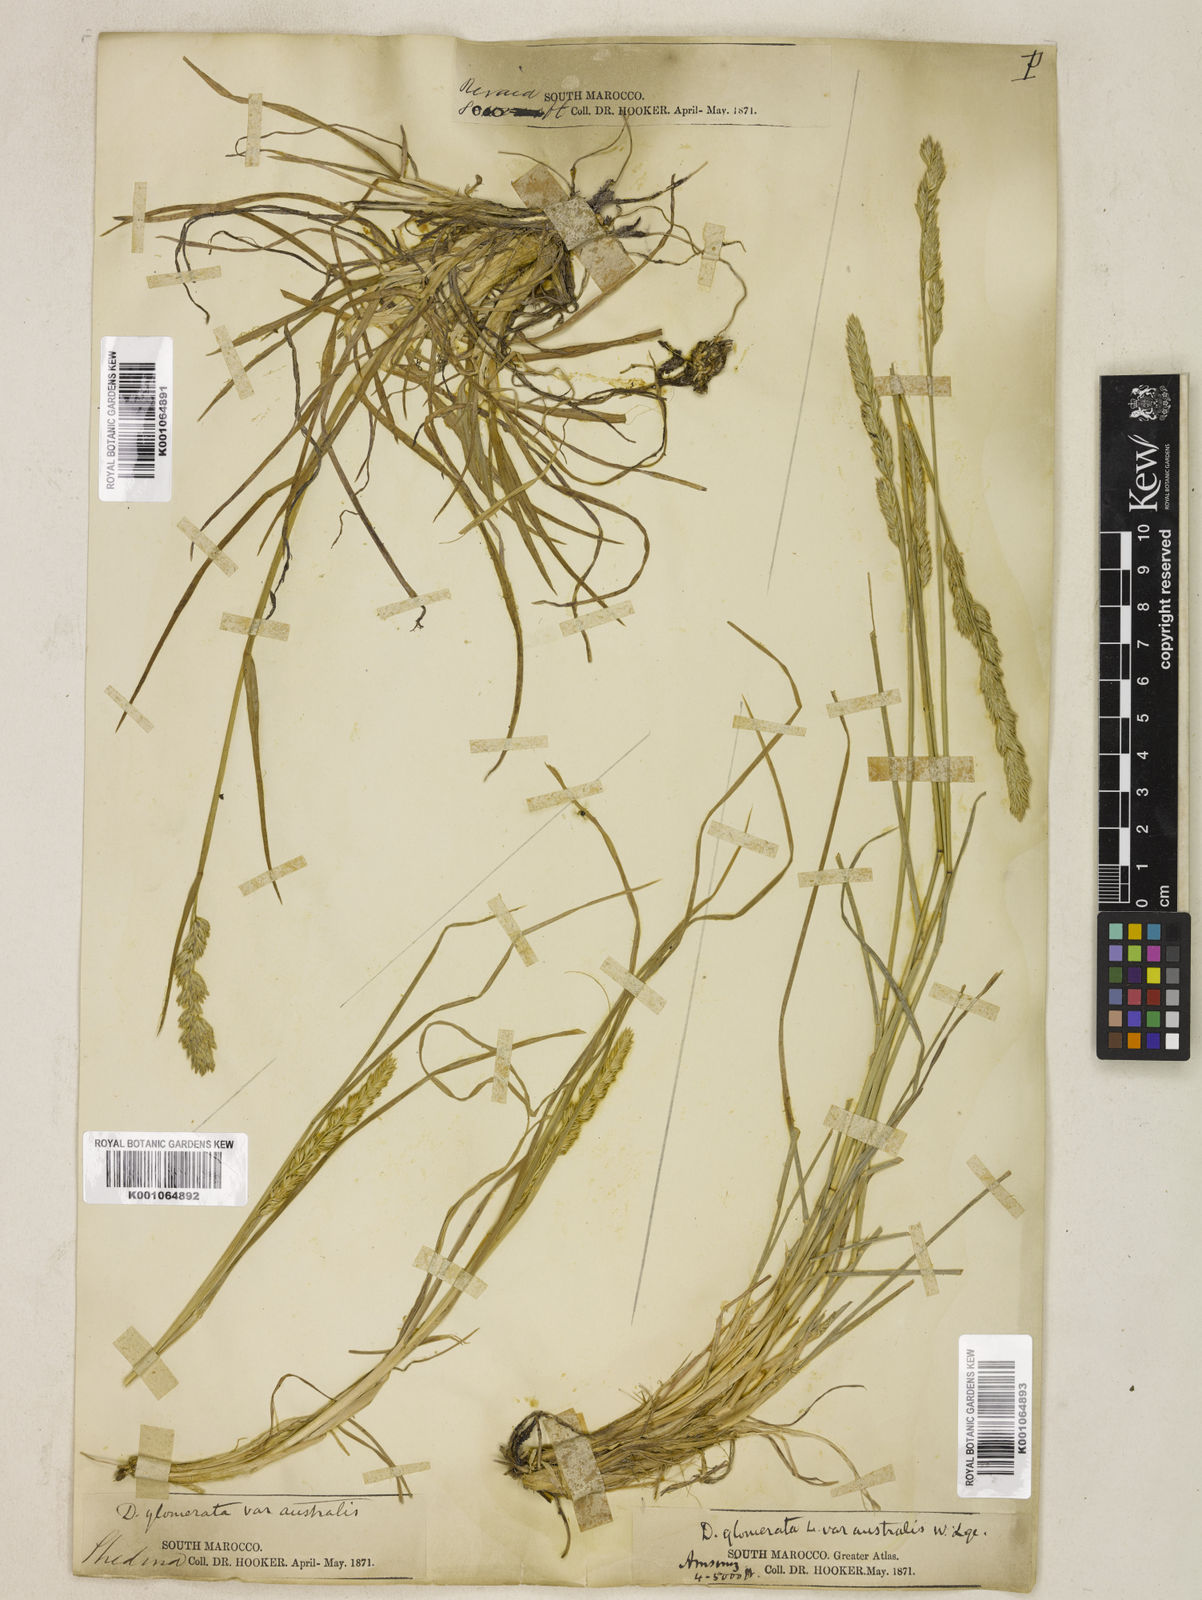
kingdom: Plantae
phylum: Tracheophyta
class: Liliopsida
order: Poales
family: Poaceae
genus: Dactylis
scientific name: Dactylis glomerata
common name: Orchardgrass
